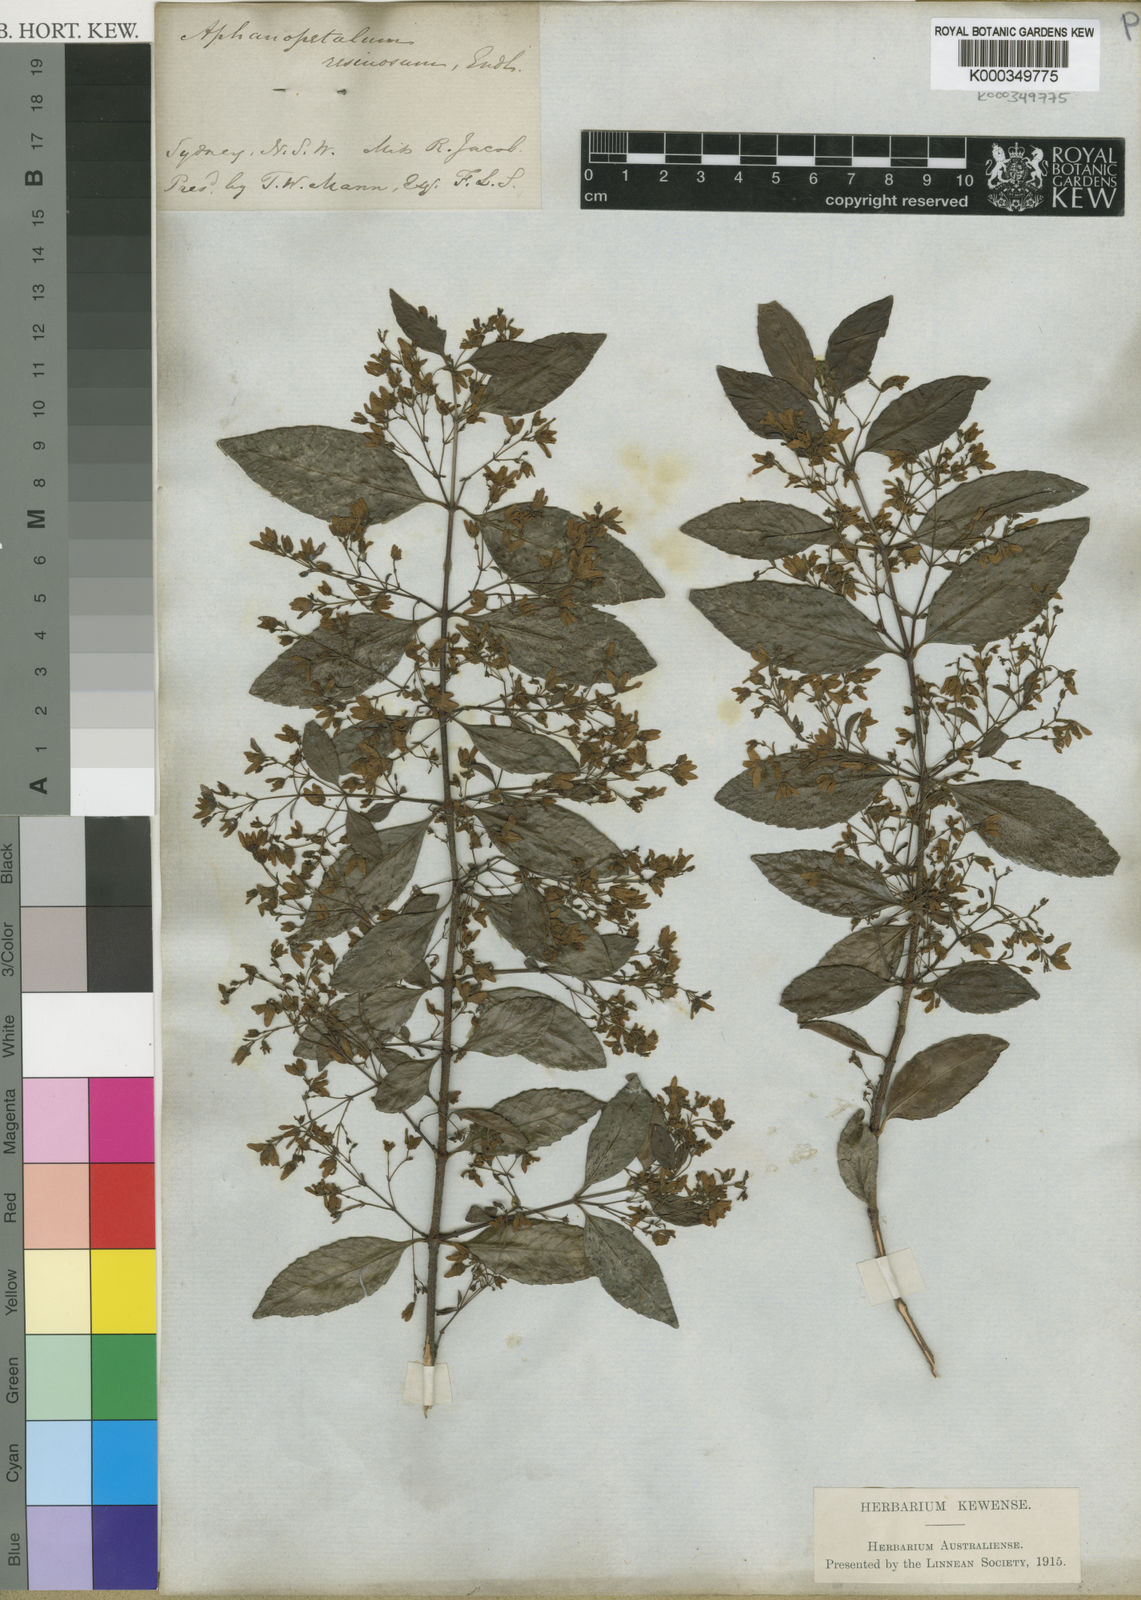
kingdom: Plantae
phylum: Tracheophyta
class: Magnoliopsida
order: Saxifragales
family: Aphanopetalaceae
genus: Aphanopetalum
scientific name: Aphanopetalum resinosum
